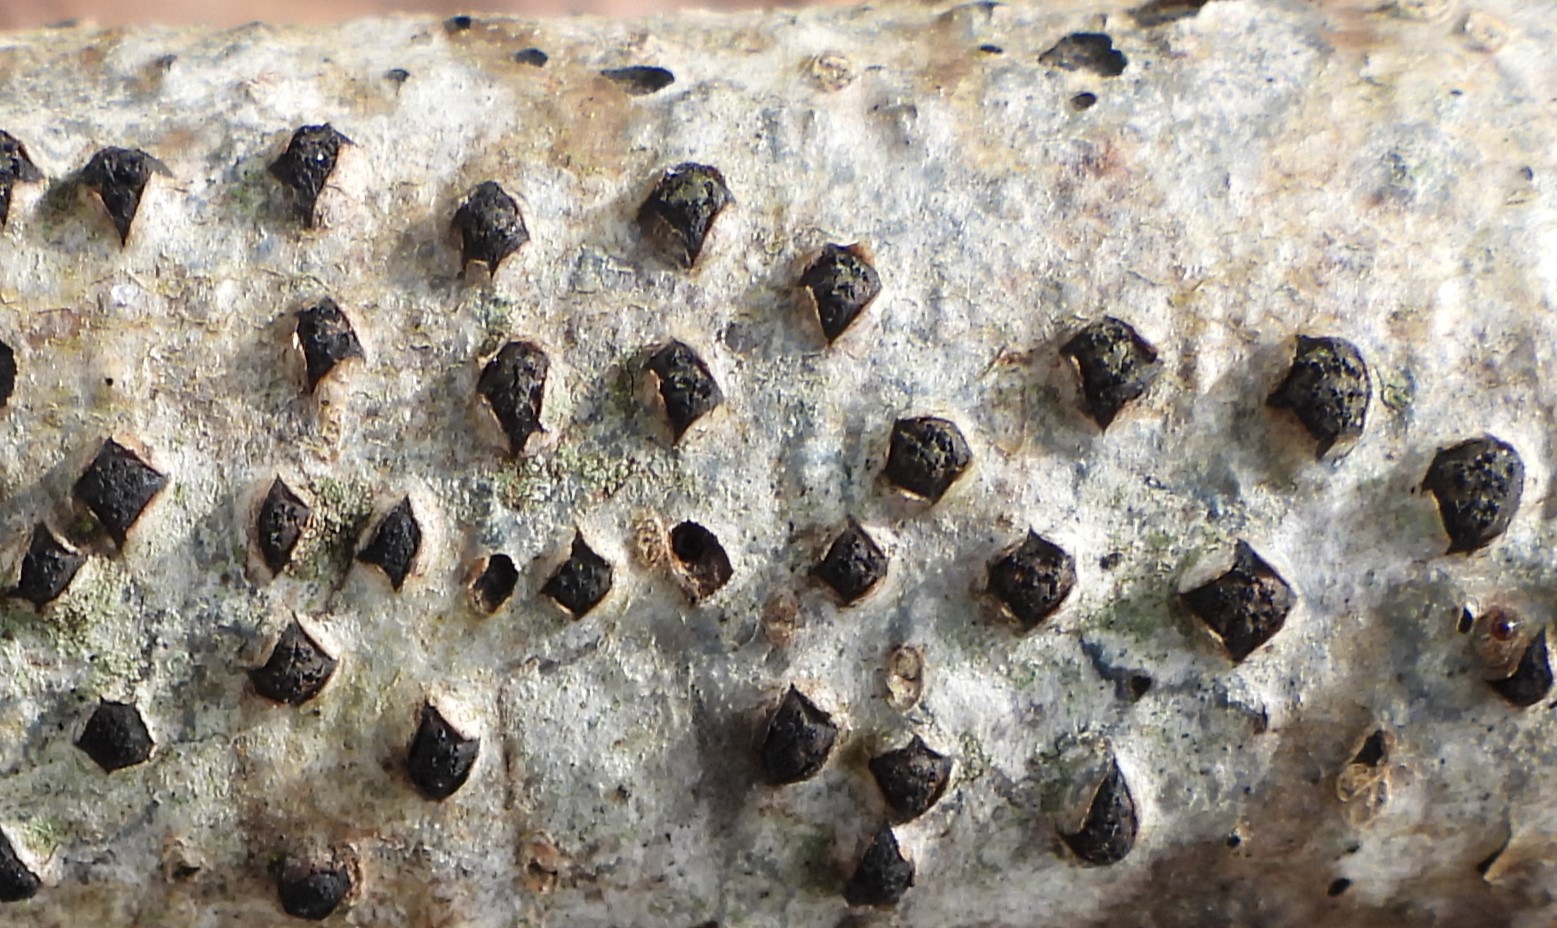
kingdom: Fungi
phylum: Ascomycota
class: Sordariomycetes
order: Xylariales
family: Diatrypaceae
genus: Diatrypella
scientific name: Diatrypella quercina
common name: ege-kulskorpe
